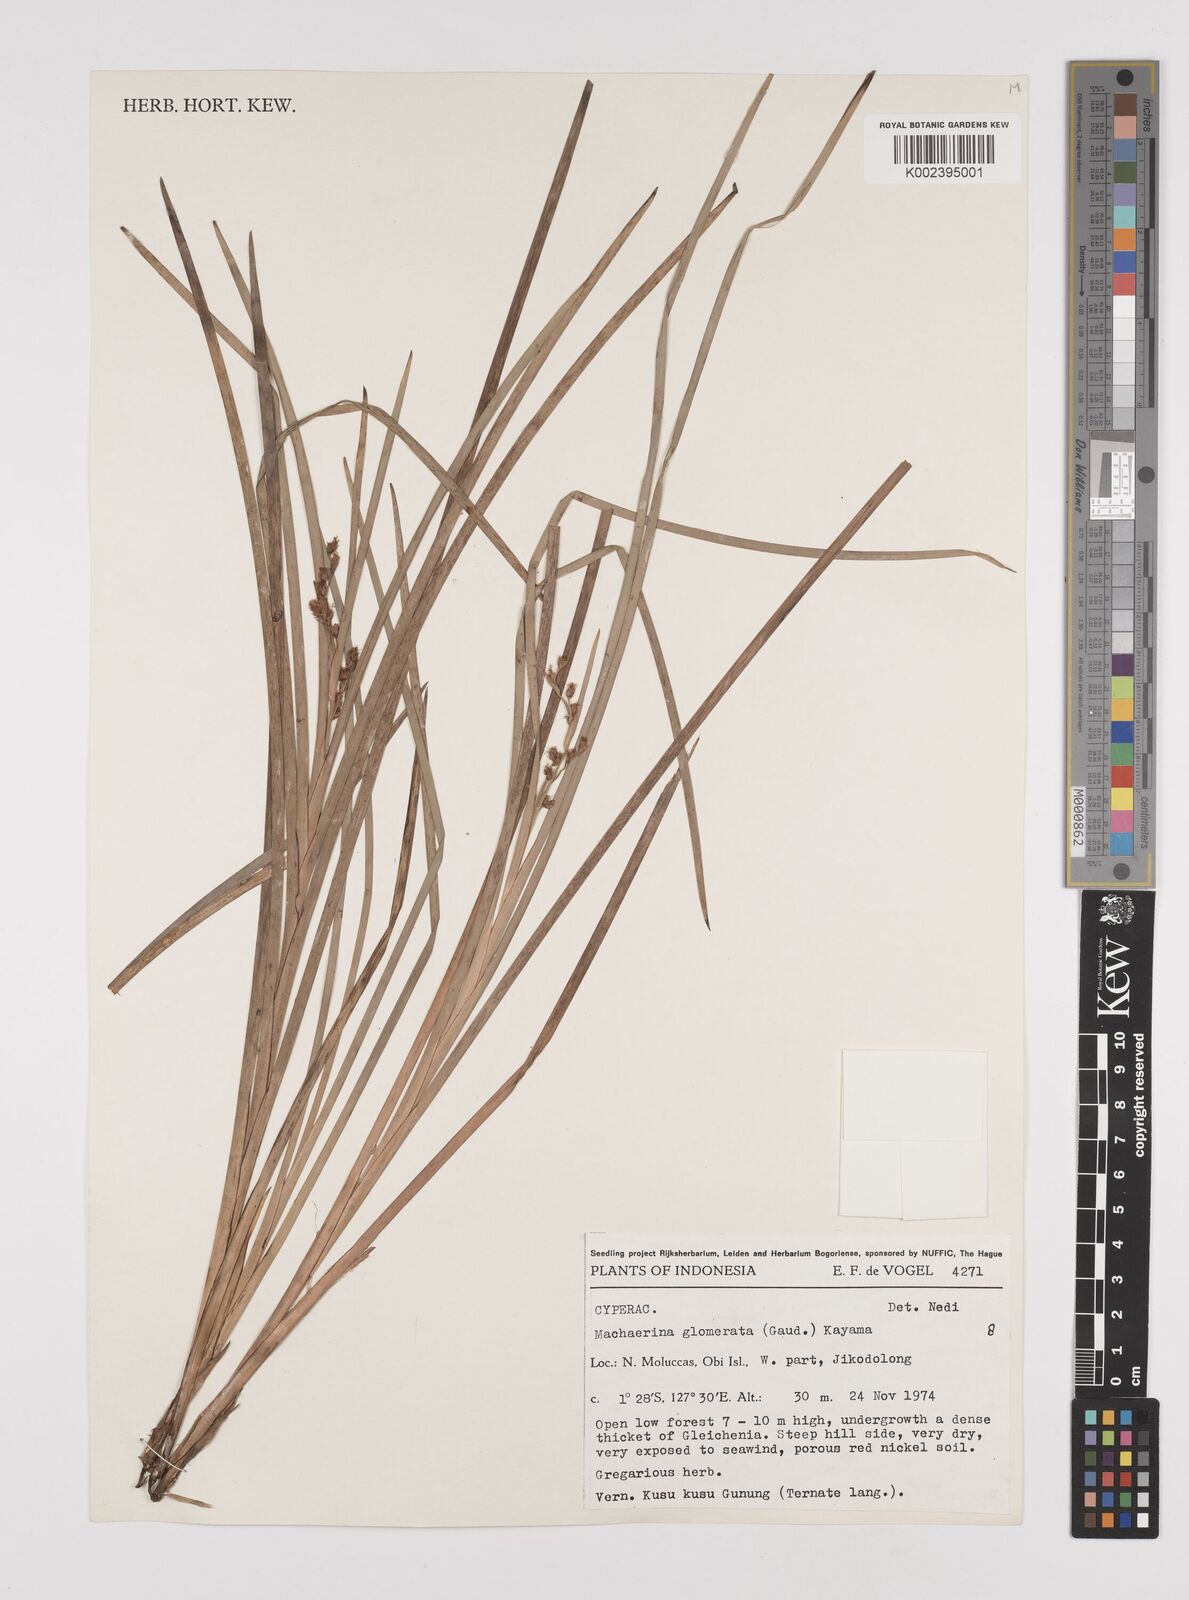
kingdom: Plantae
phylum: Tracheophyta
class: Liliopsida
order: Poales
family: Cyperaceae
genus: Machaerina
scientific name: Machaerina glomerata
